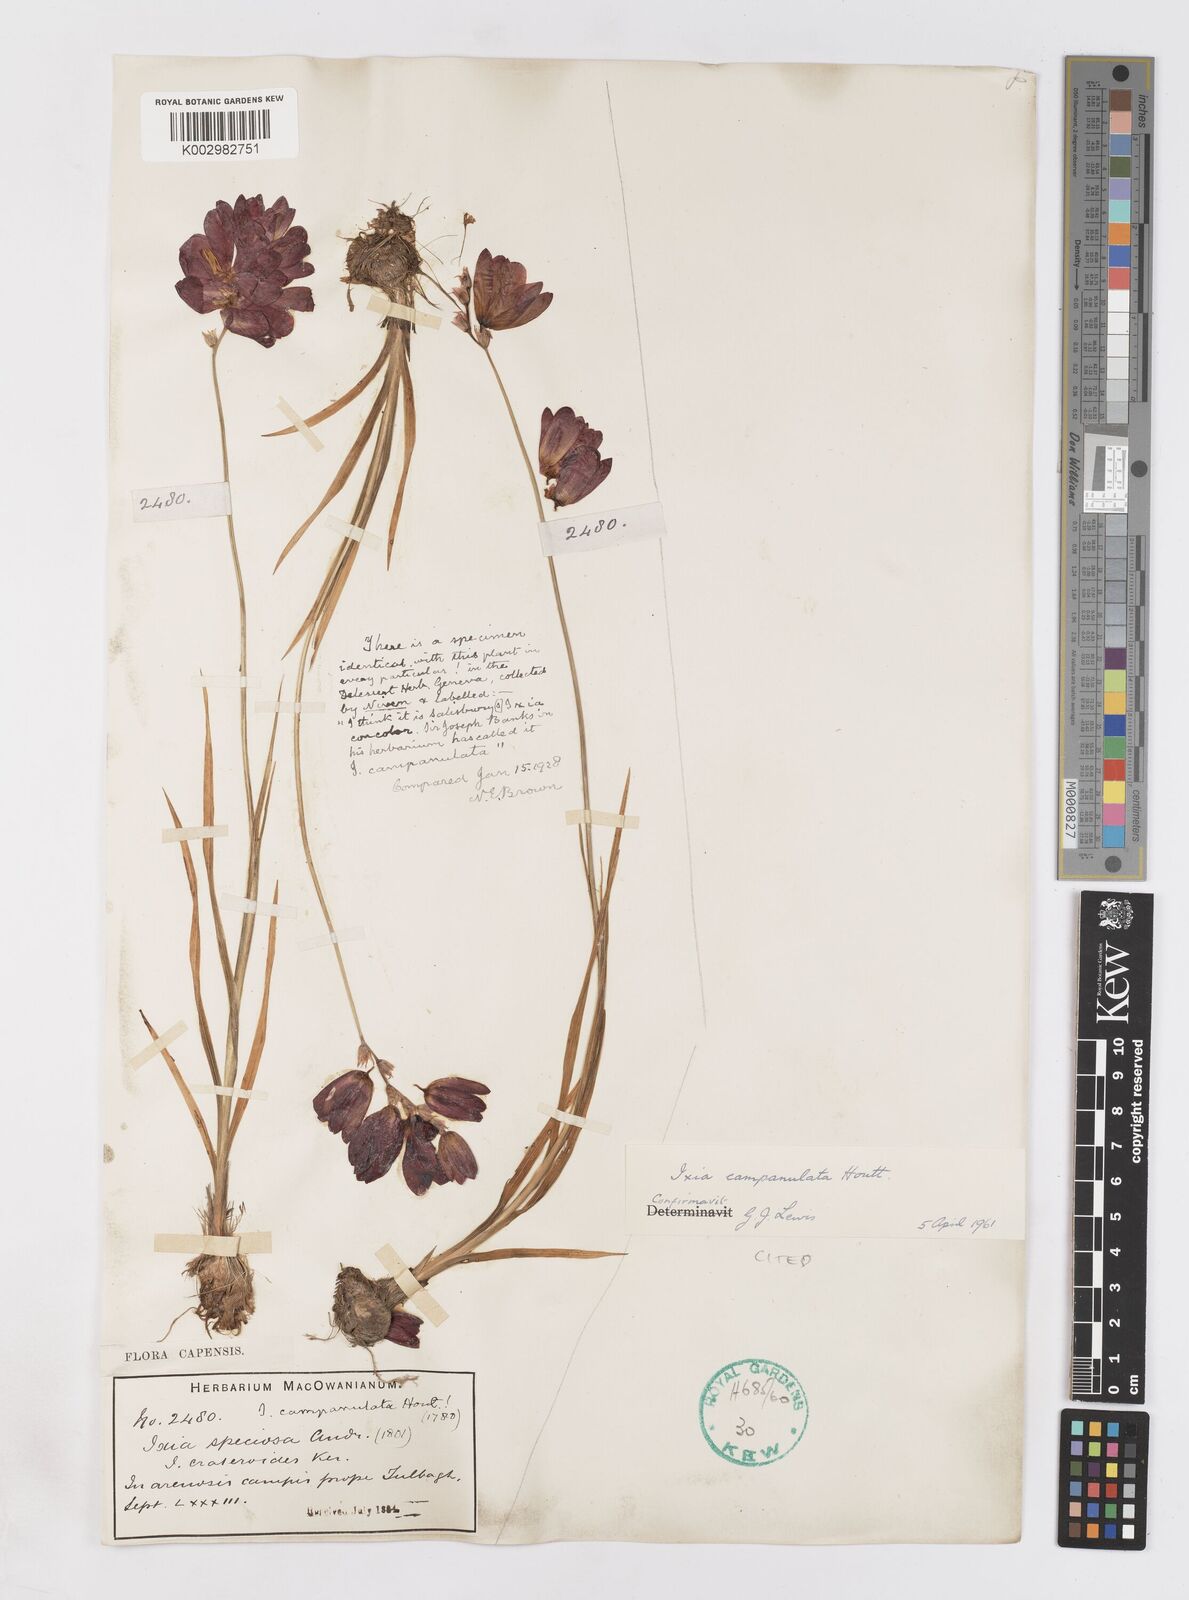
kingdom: Plantae
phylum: Tracheophyta
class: Liliopsida
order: Asparagales
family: Iridaceae
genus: Ixia
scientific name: Ixia campanulata
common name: Red corn-lily
